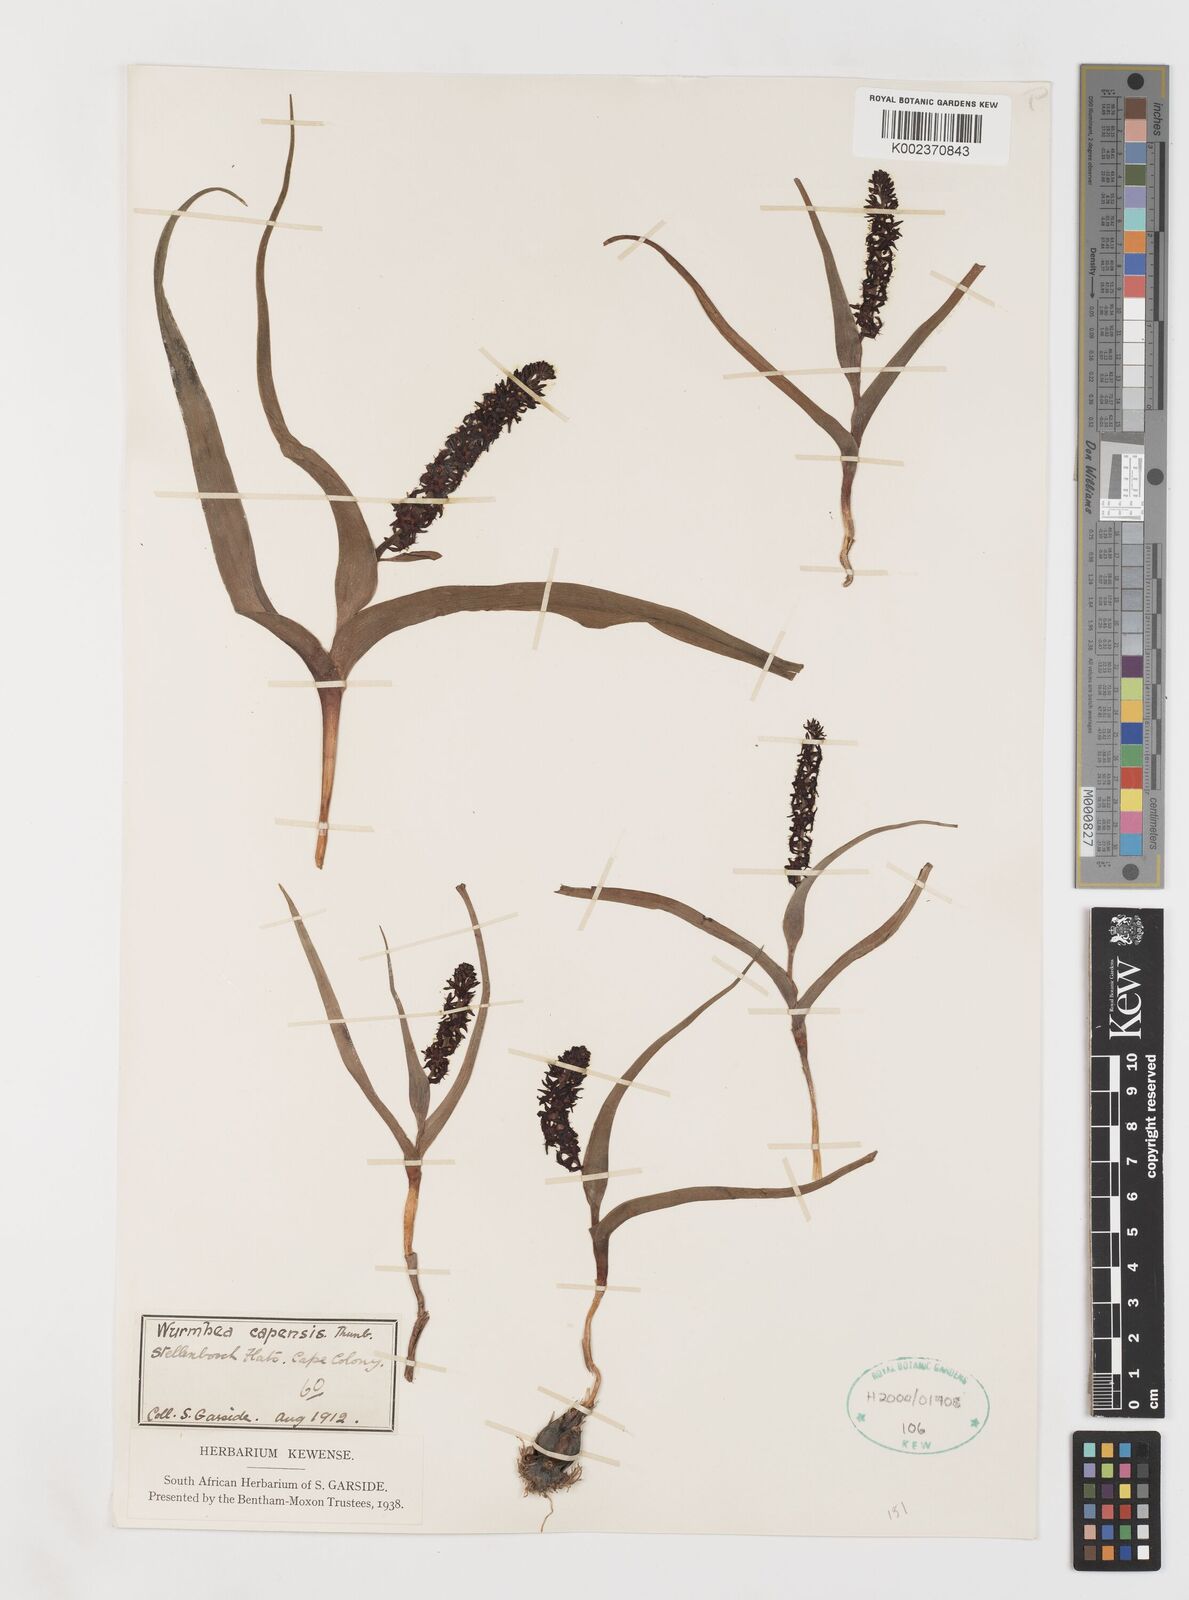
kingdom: Plantae
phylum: Tracheophyta
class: Liliopsida
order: Liliales
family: Colchicaceae
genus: Wurmbea
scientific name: Wurmbea capensis
